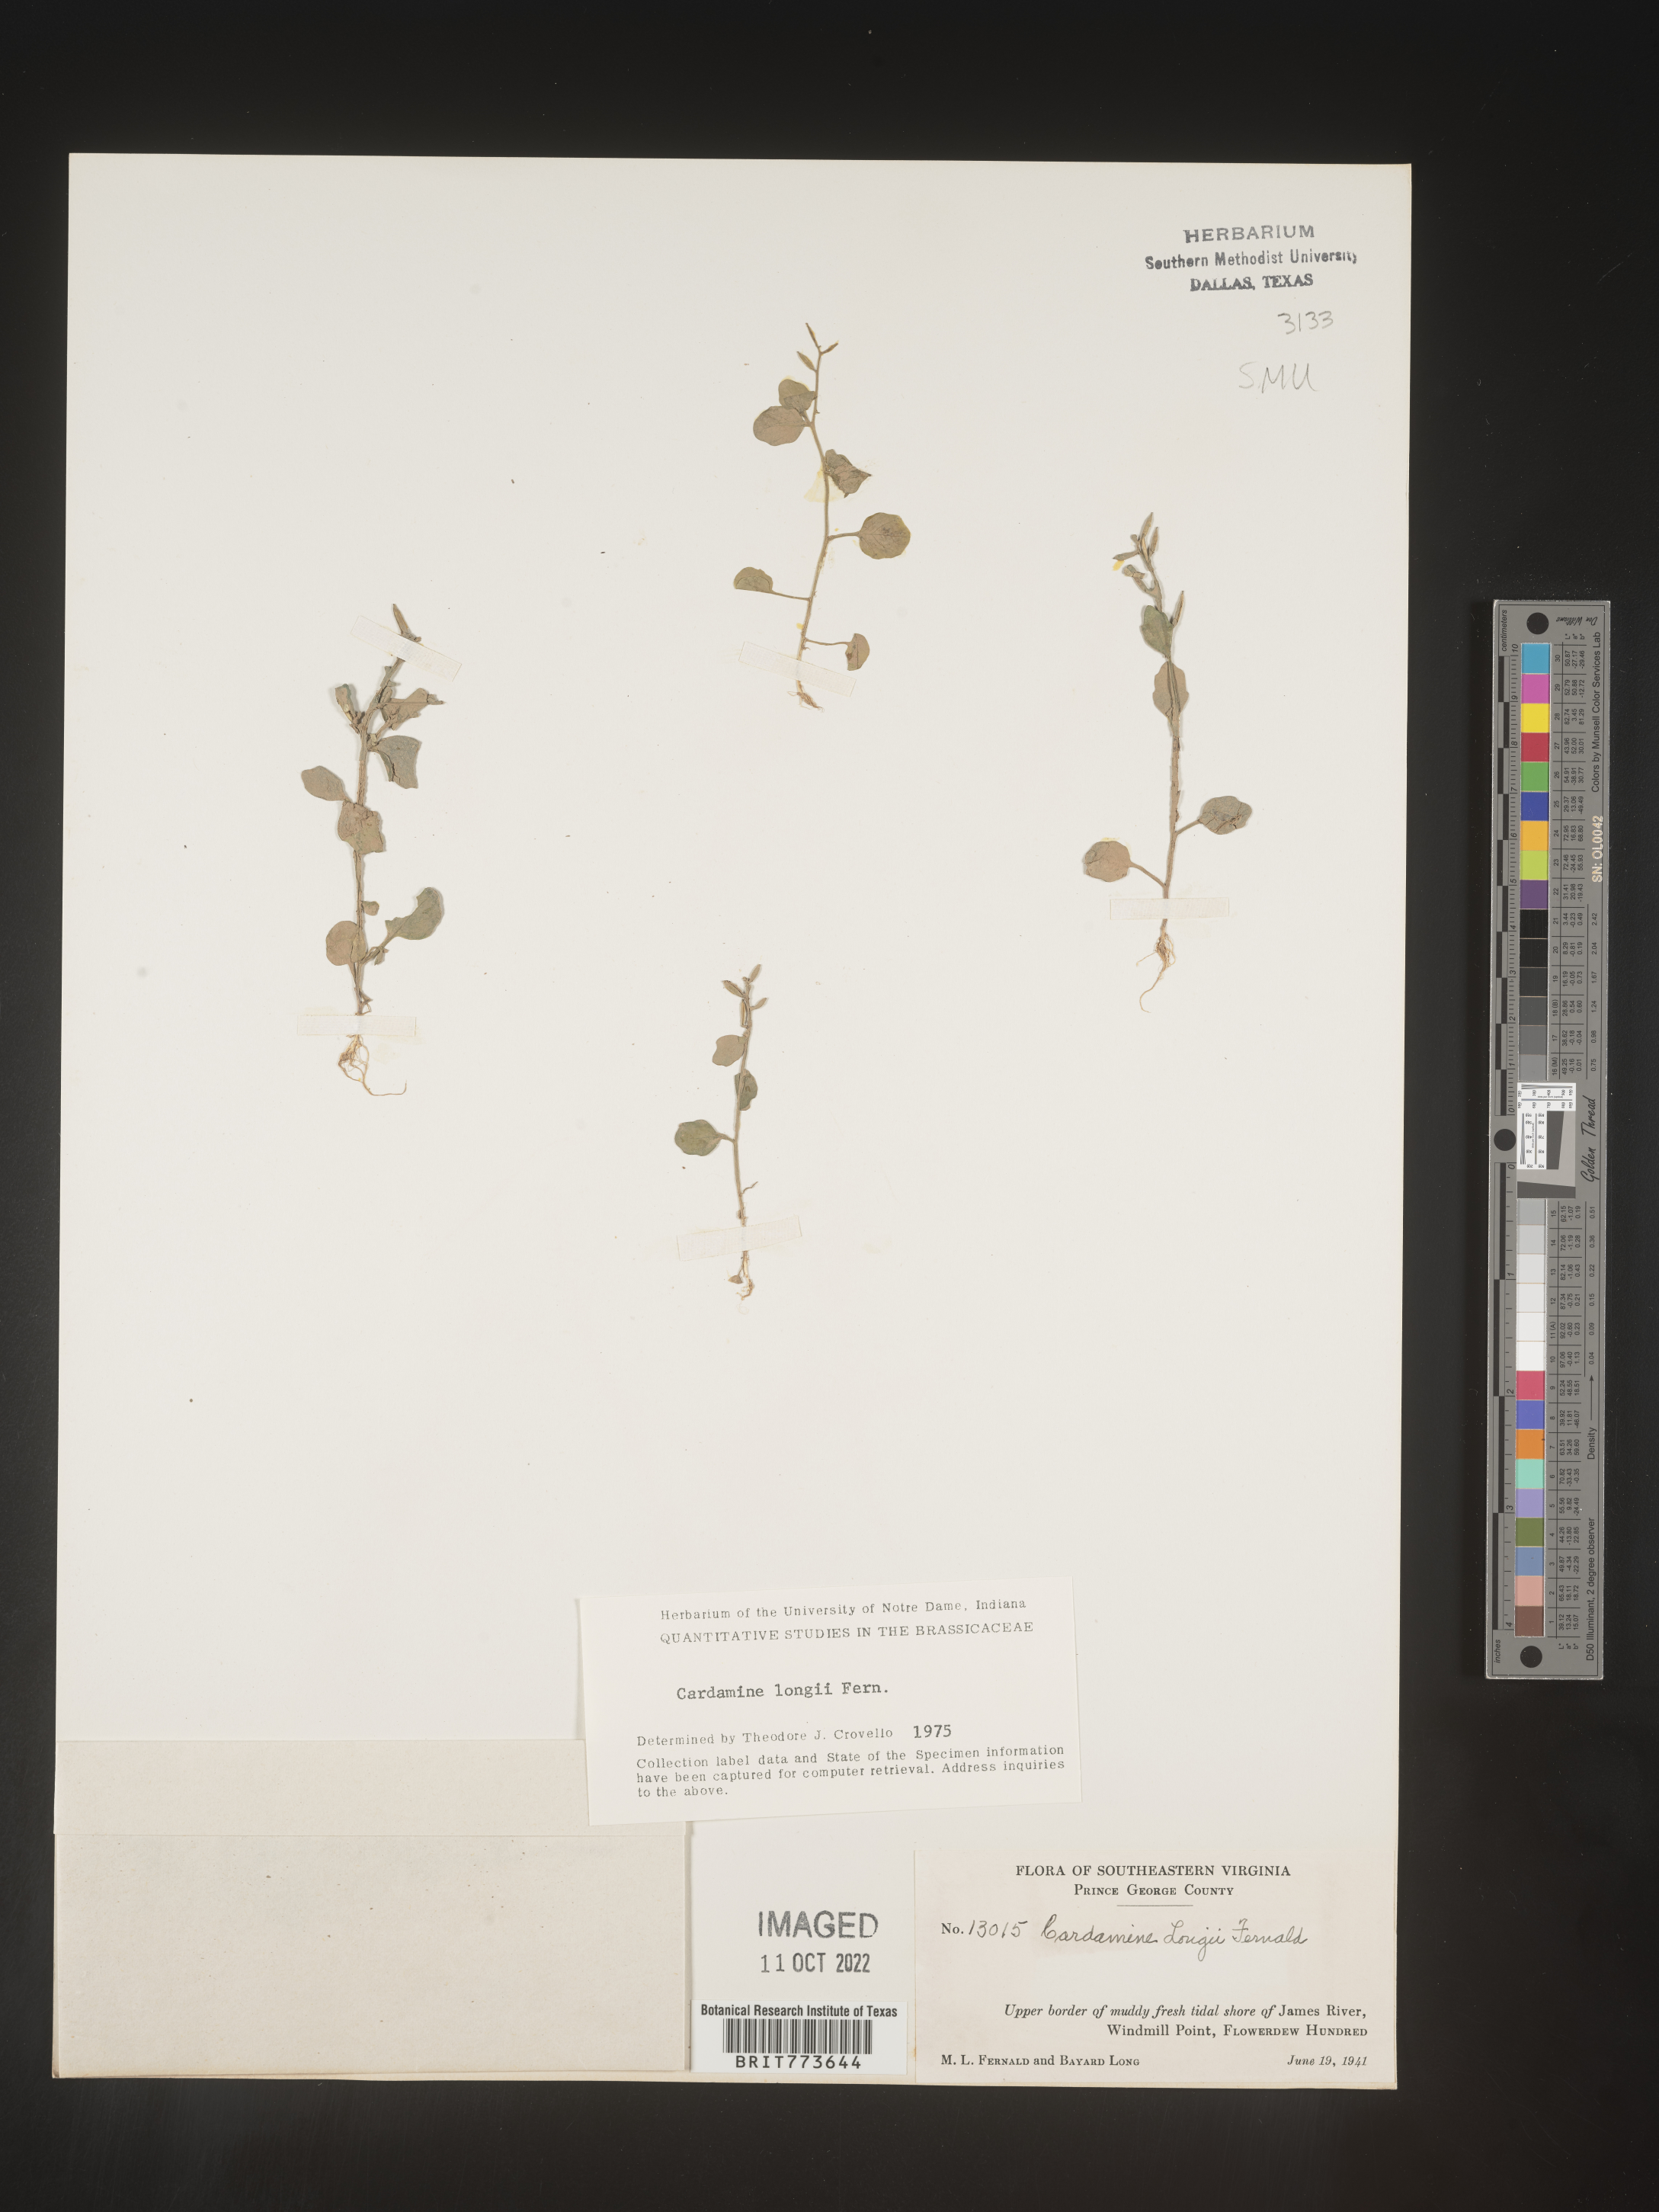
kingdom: Plantae
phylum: Tracheophyta
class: Magnoliopsida
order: Brassicales
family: Brassicaceae
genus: Cardamine
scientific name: Cardamine
